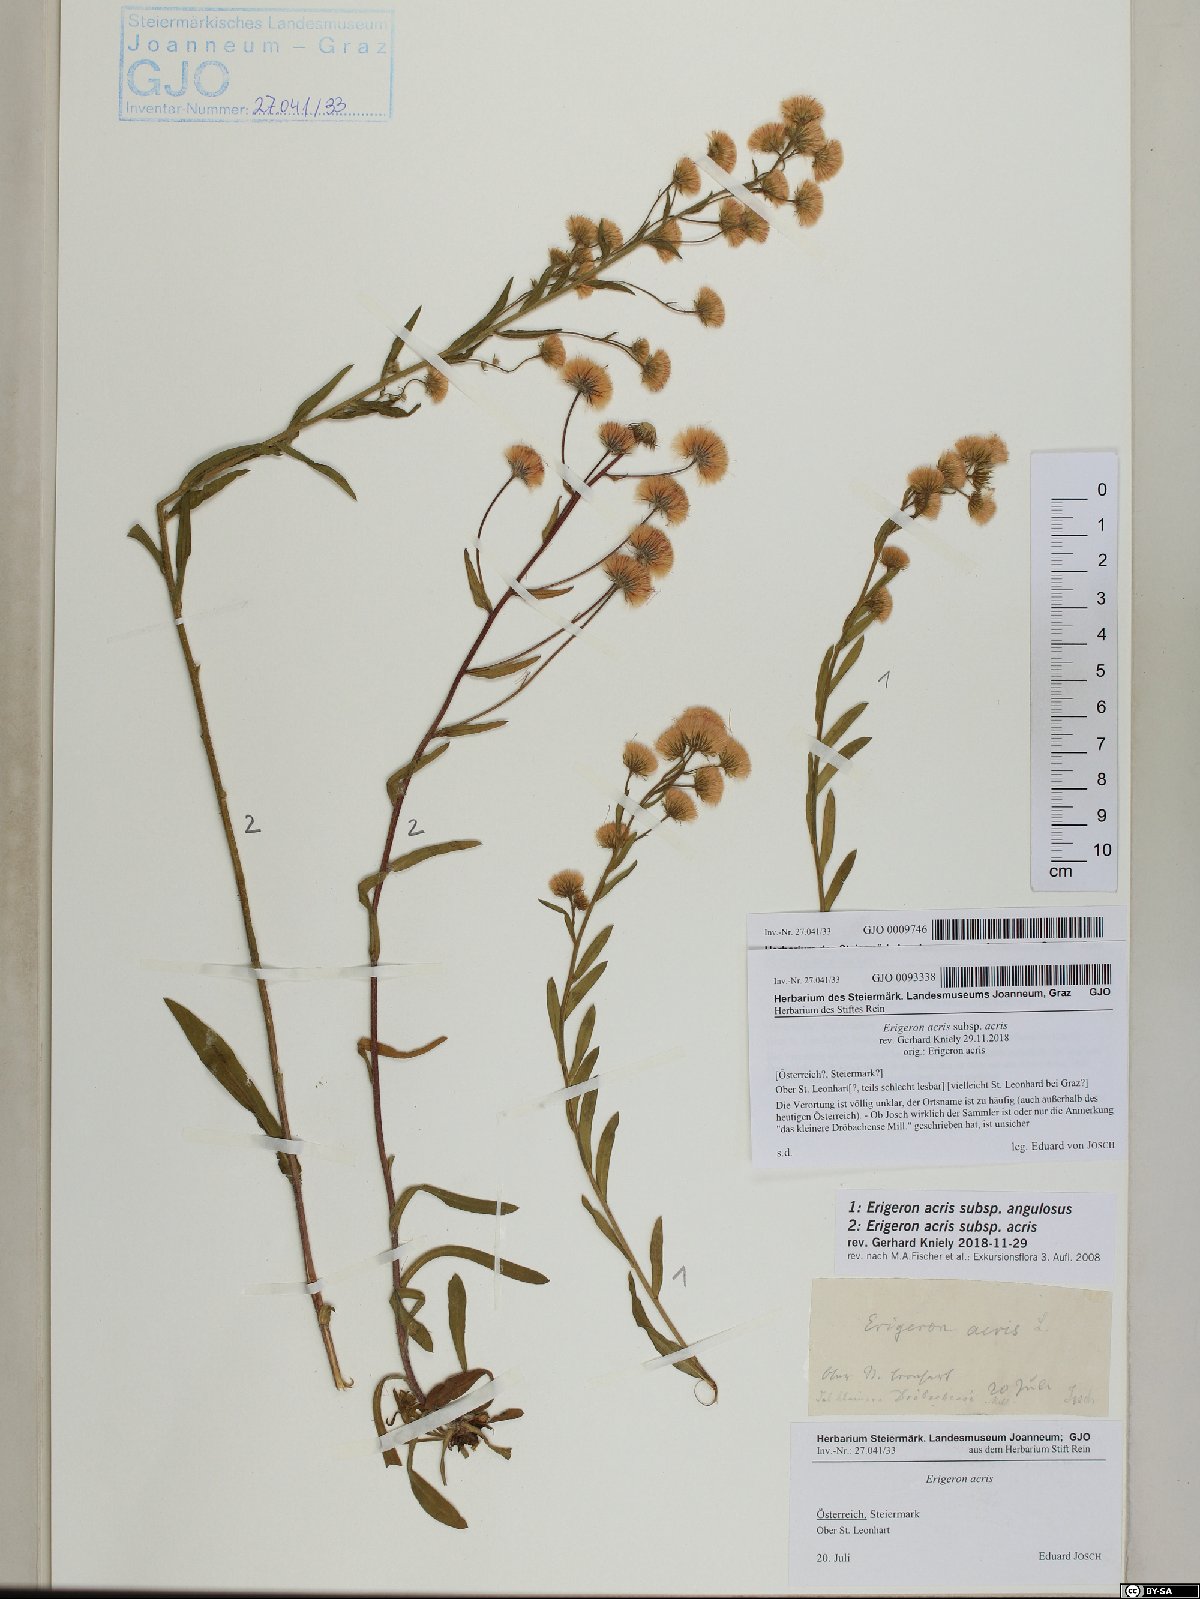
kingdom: Plantae
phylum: Tracheophyta
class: Magnoliopsida
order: Asterales
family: Asteraceae
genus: Erigeron
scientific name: Erigeron angulosus
